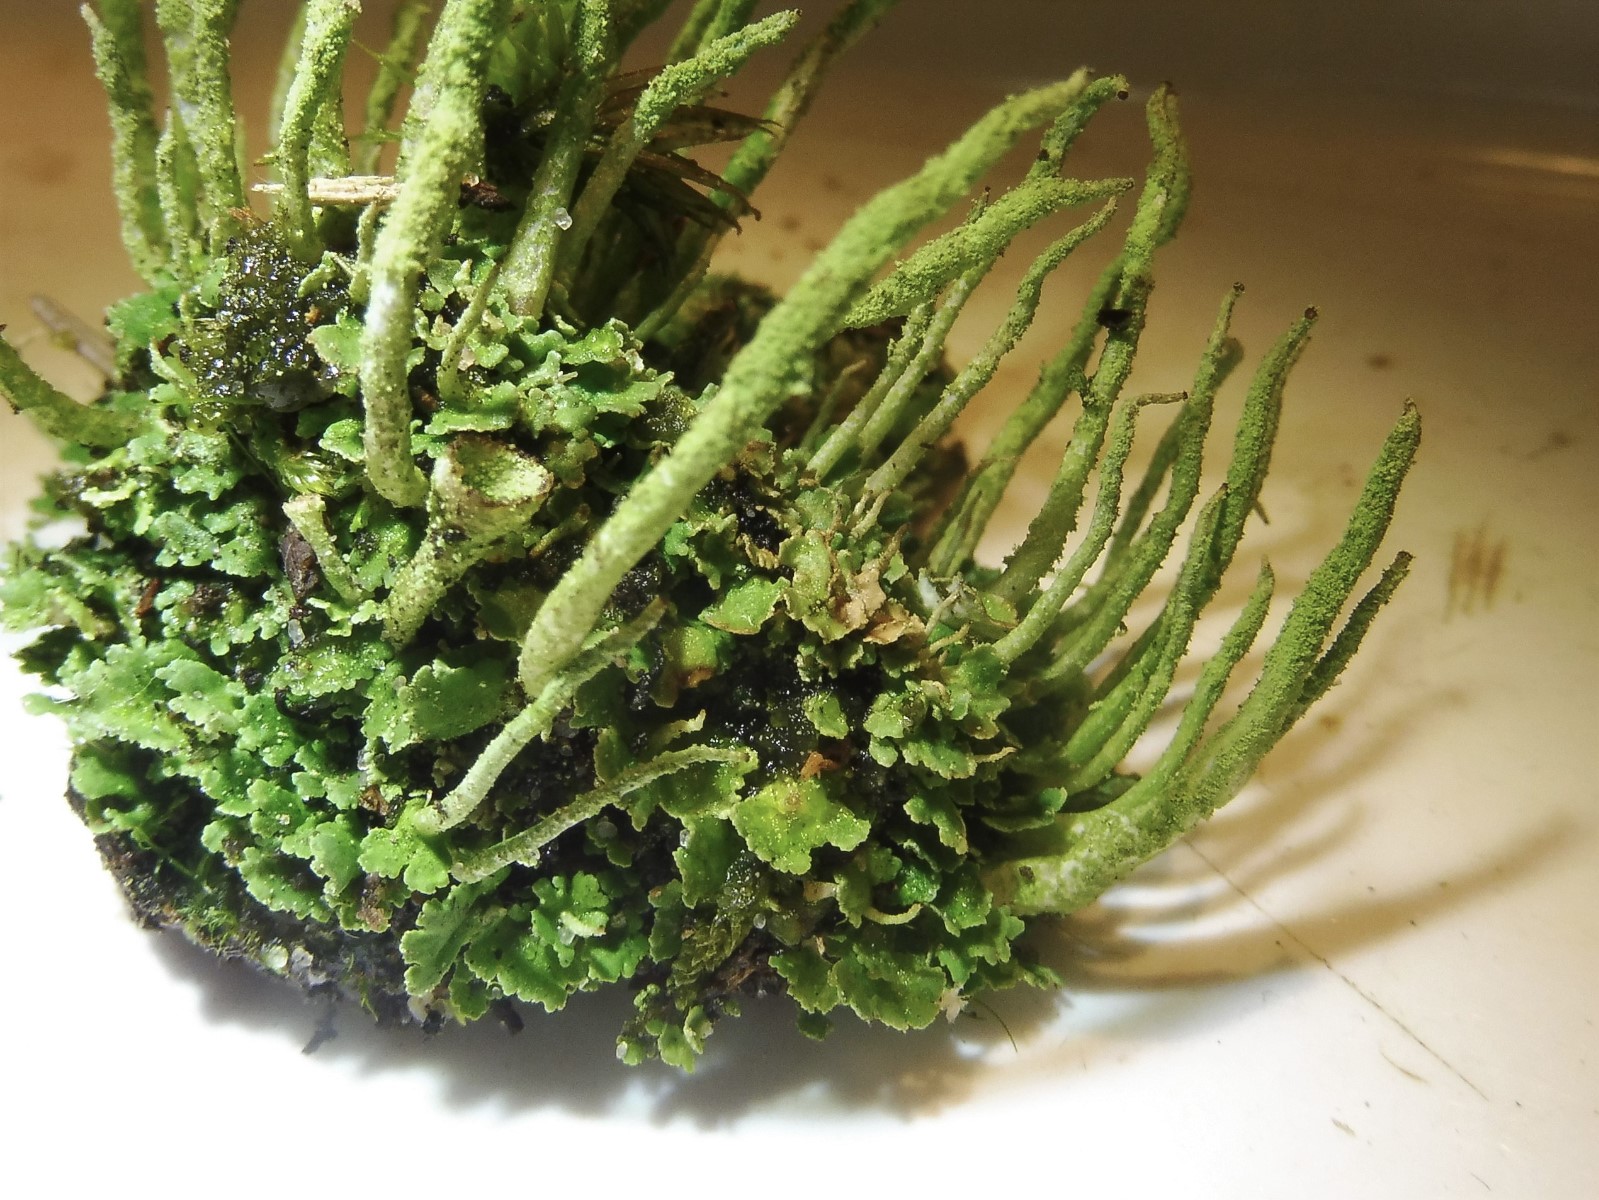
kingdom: Fungi
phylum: Ascomycota
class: Lecanoromycetes
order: Lecanorales
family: Cladoniaceae
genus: Cladonia
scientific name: Cladonia coniocraea
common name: træfods-bægerlav
